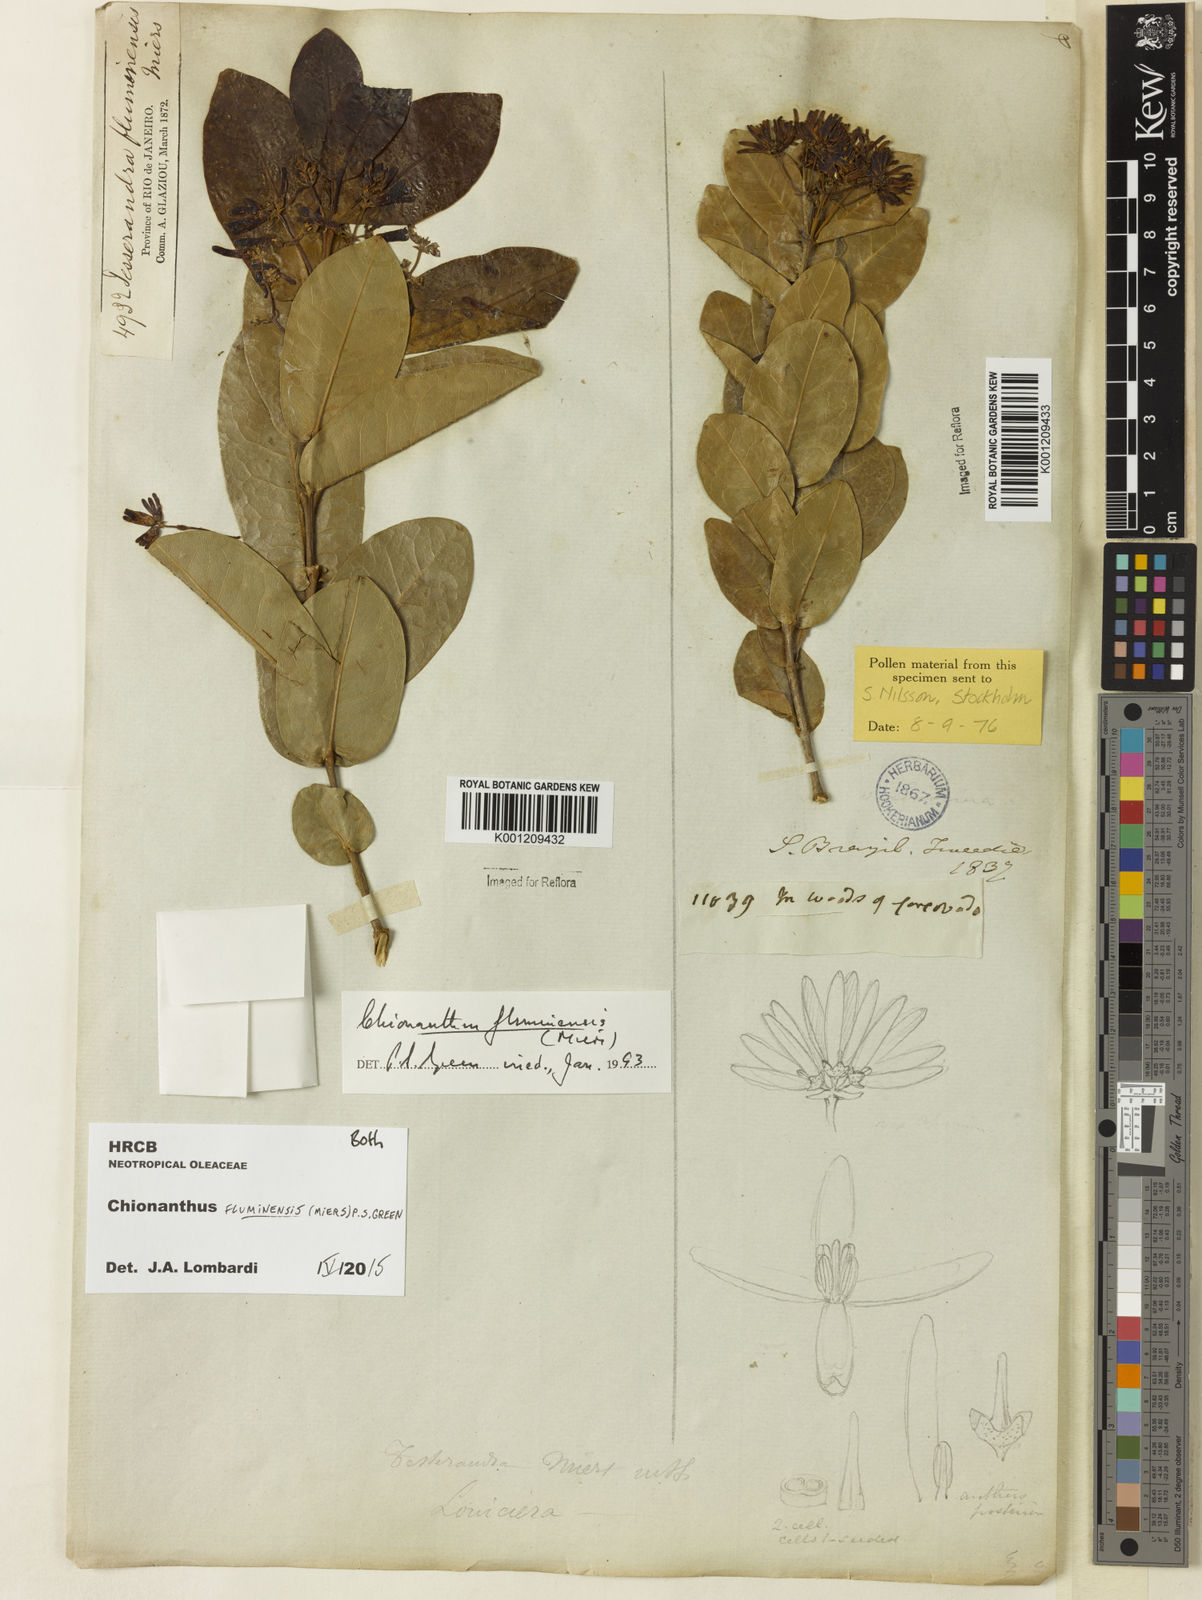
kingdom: Plantae
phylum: Tracheophyta
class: Magnoliopsida
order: Lamiales
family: Oleaceae
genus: Chionanthus
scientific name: Chionanthus fluminensis
